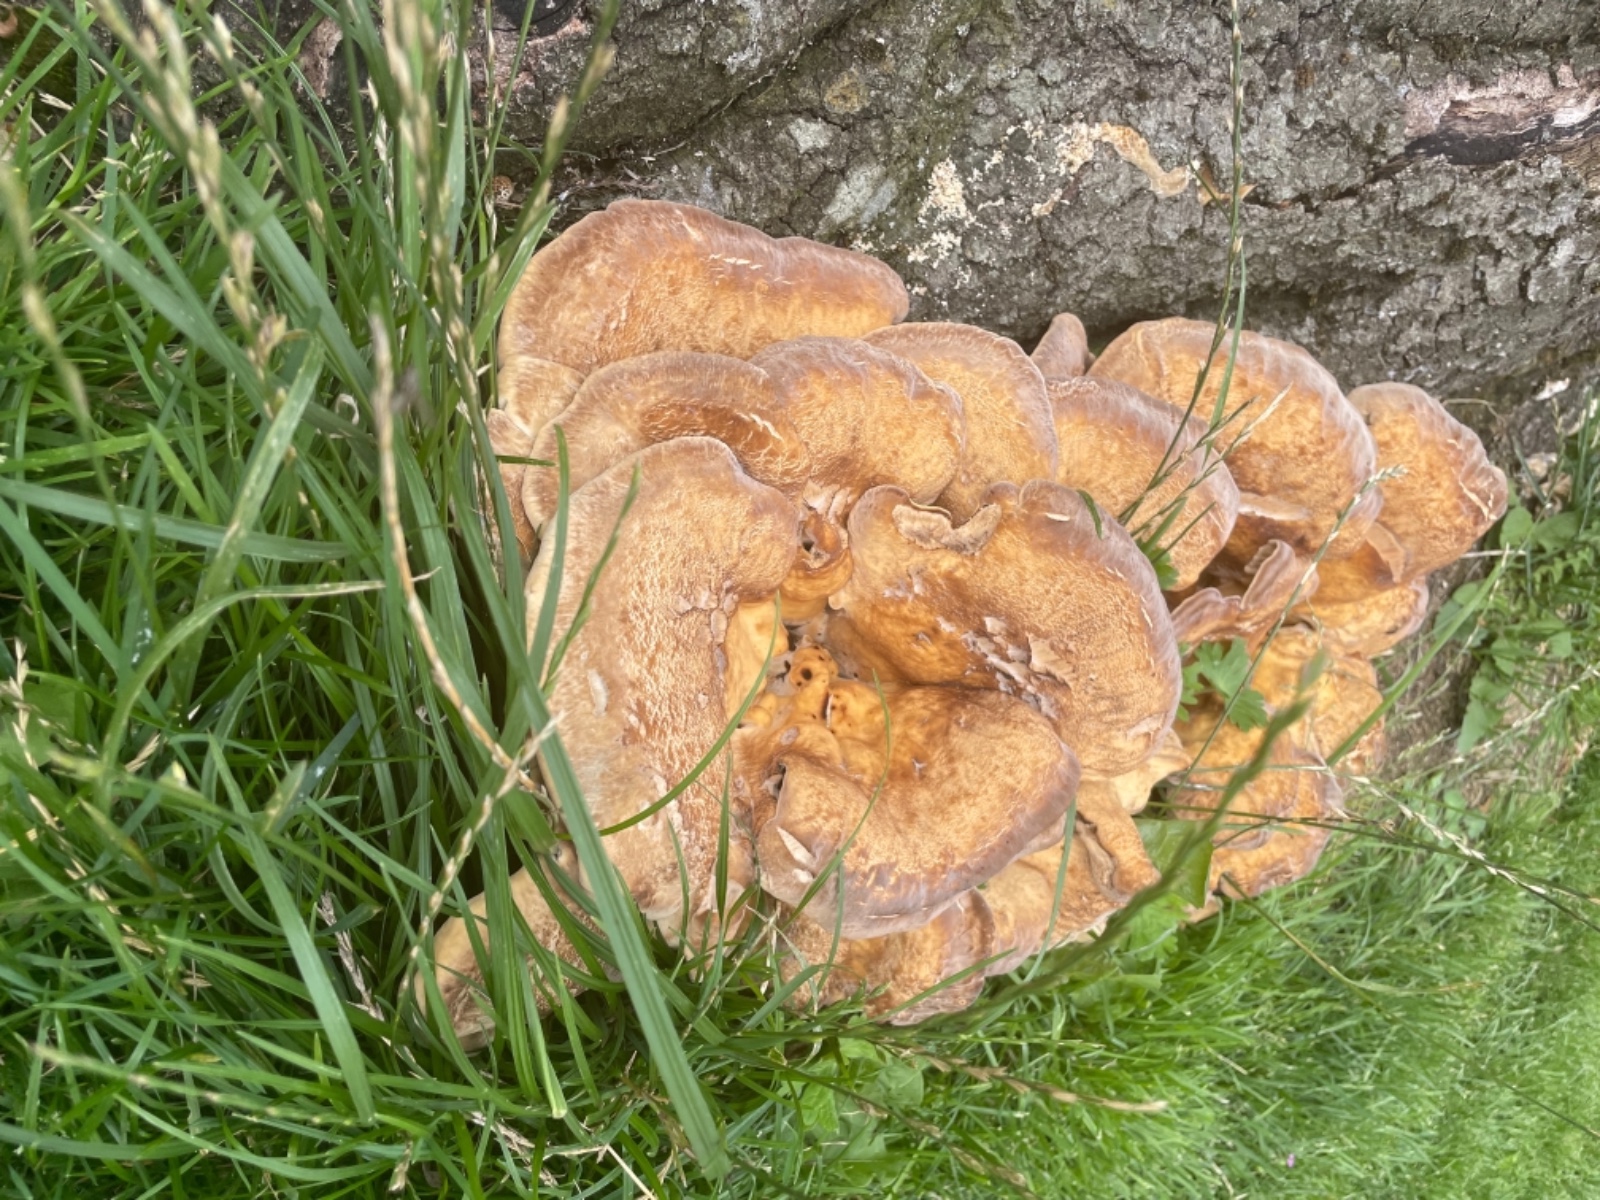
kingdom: Fungi
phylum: Basidiomycota
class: Agaricomycetes
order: Polyporales
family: Meripilaceae
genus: Meripilus
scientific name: Meripilus giganteus
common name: kæmpeporesvamp
